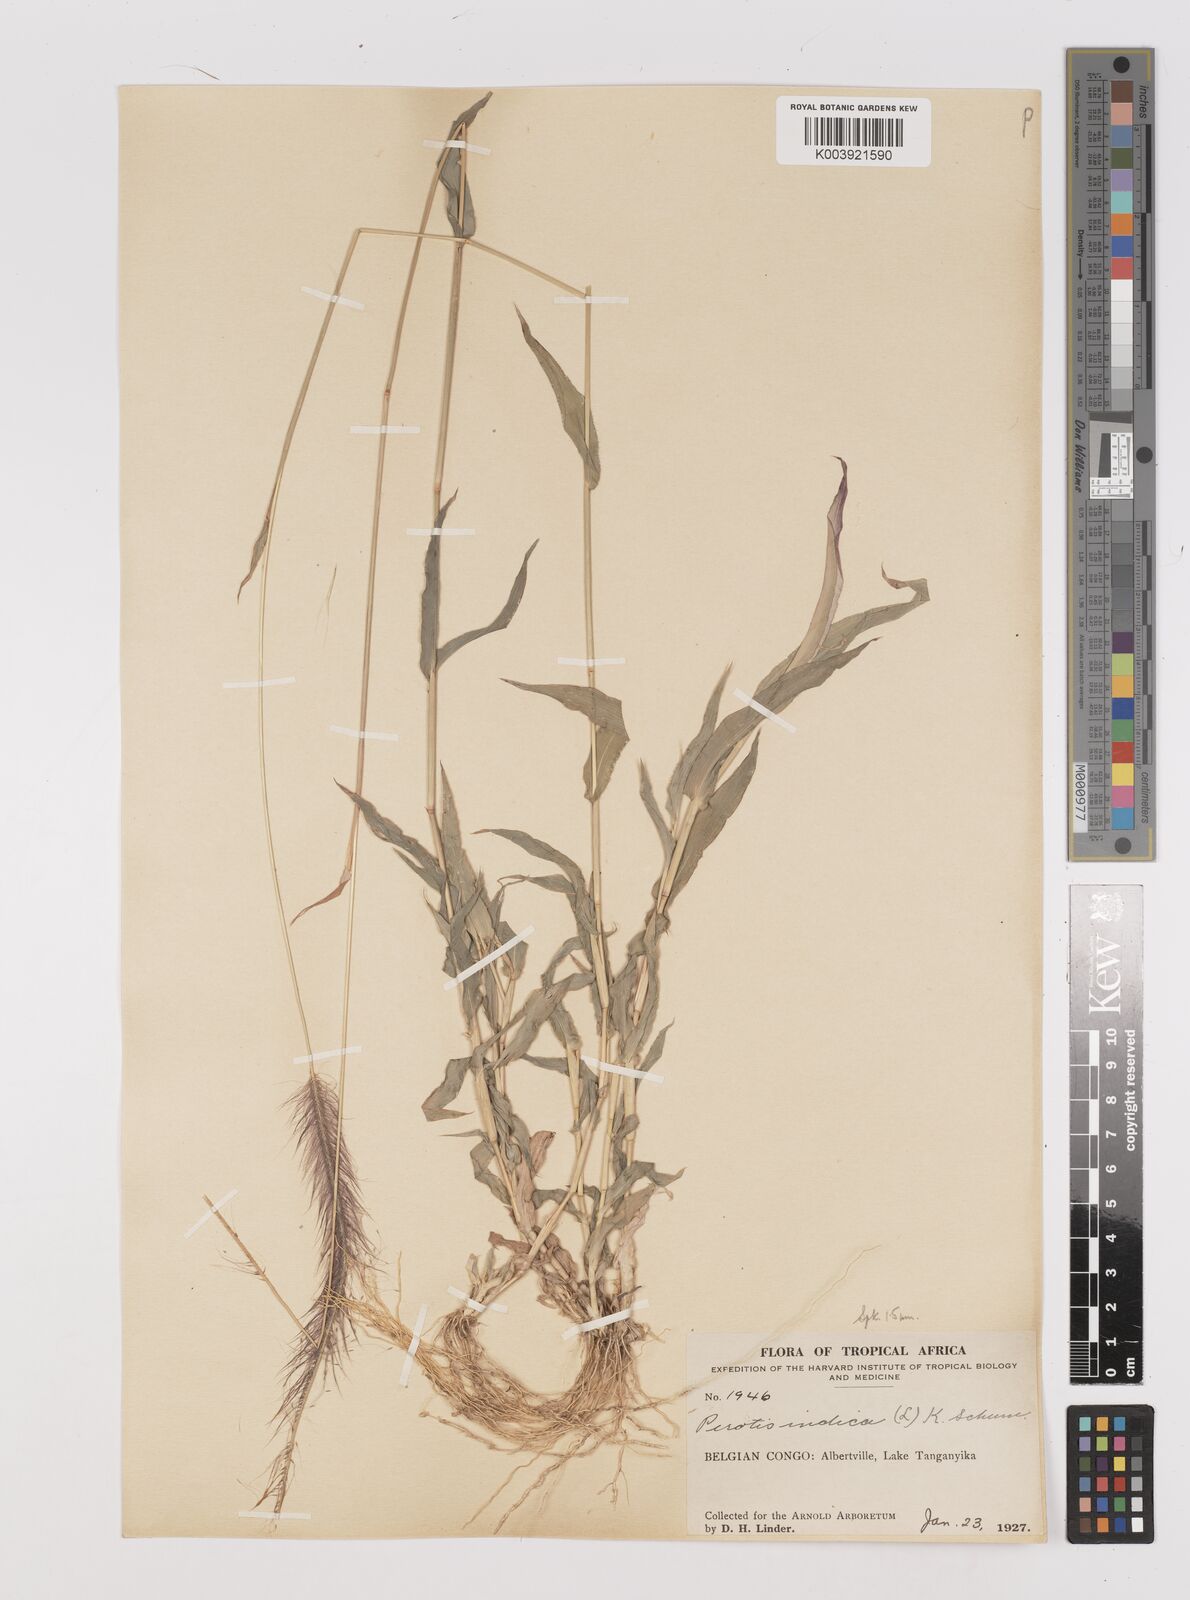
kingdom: Plantae
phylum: Tracheophyta
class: Liliopsida
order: Poales
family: Poaceae
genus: Perotis
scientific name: Perotis patens
